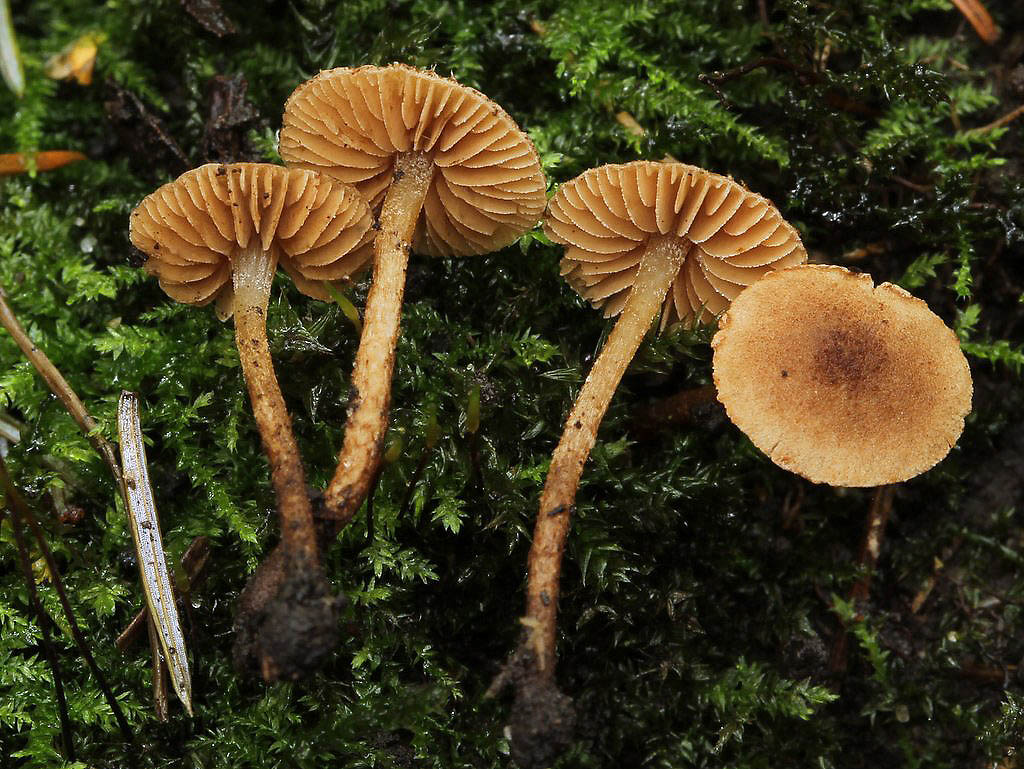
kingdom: Fungi
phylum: Basidiomycota
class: Agaricomycetes
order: Agaricales
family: Tubariaceae
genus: Flammulaster
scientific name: Flammulaster granulosus
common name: gulbrun grynskælhat
